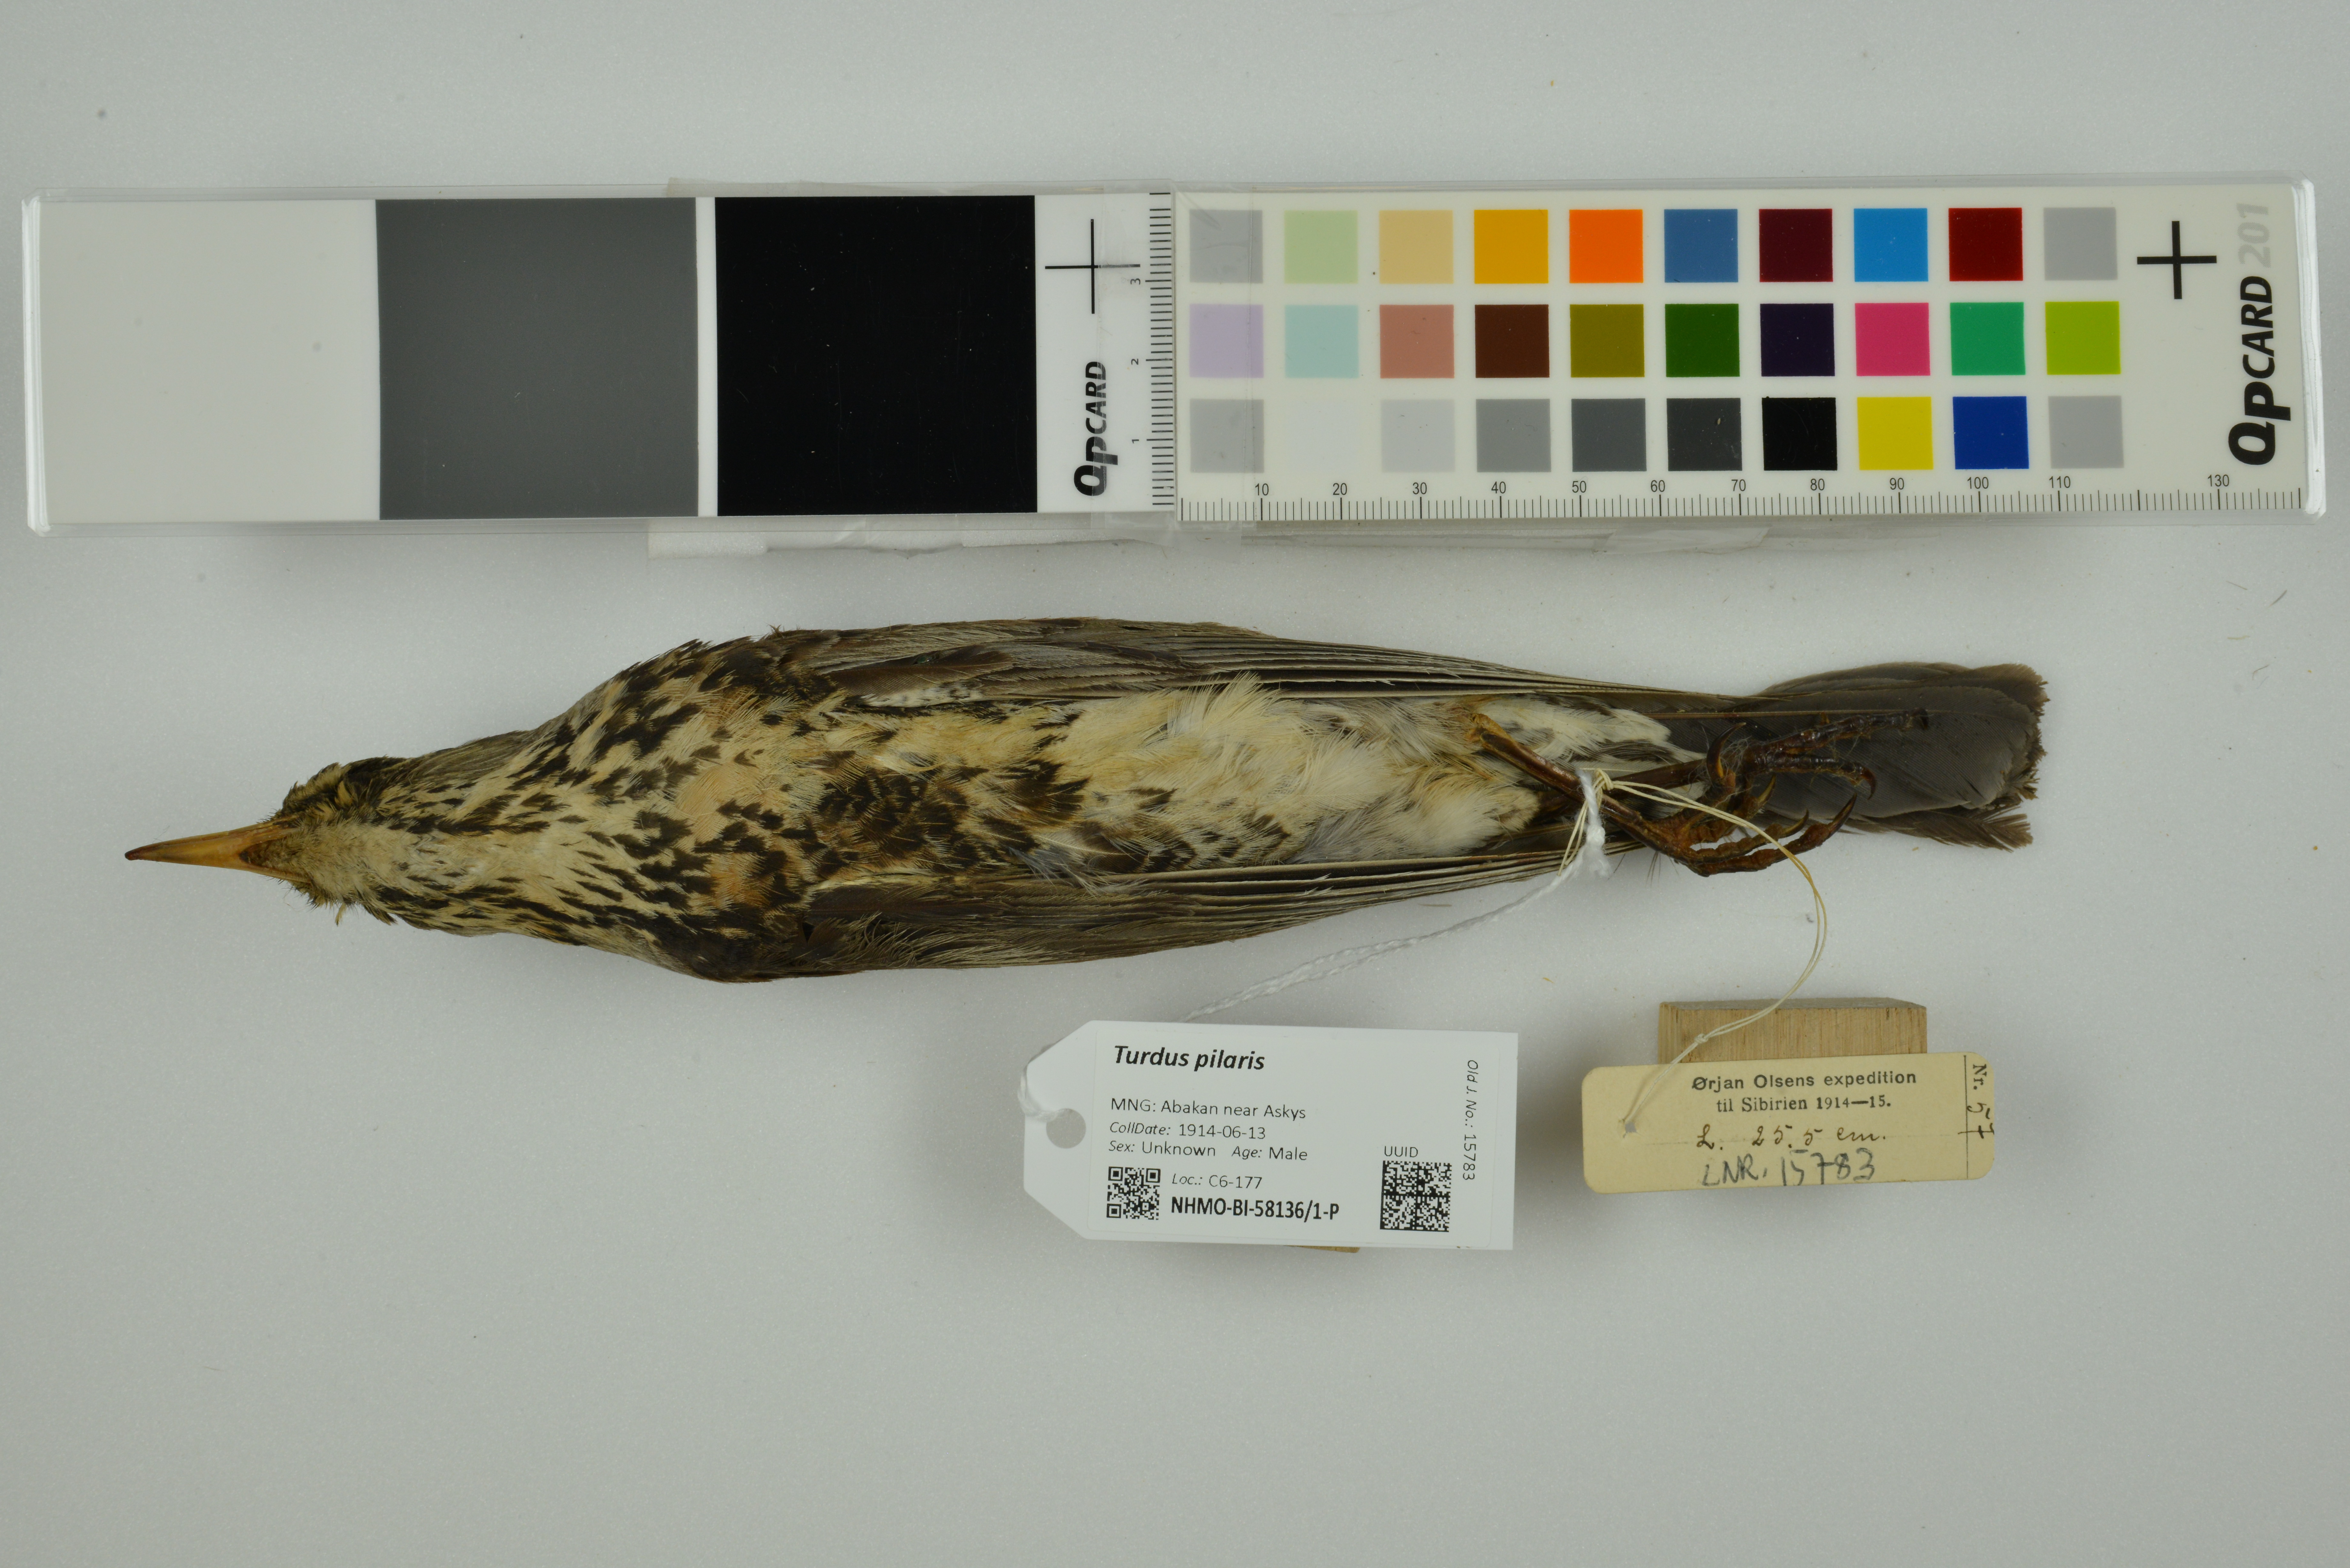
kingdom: Animalia
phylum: Chordata
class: Aves
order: Passeriformes
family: Turdidae
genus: Turdus
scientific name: Turdus pilaris
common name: Fieldfare
